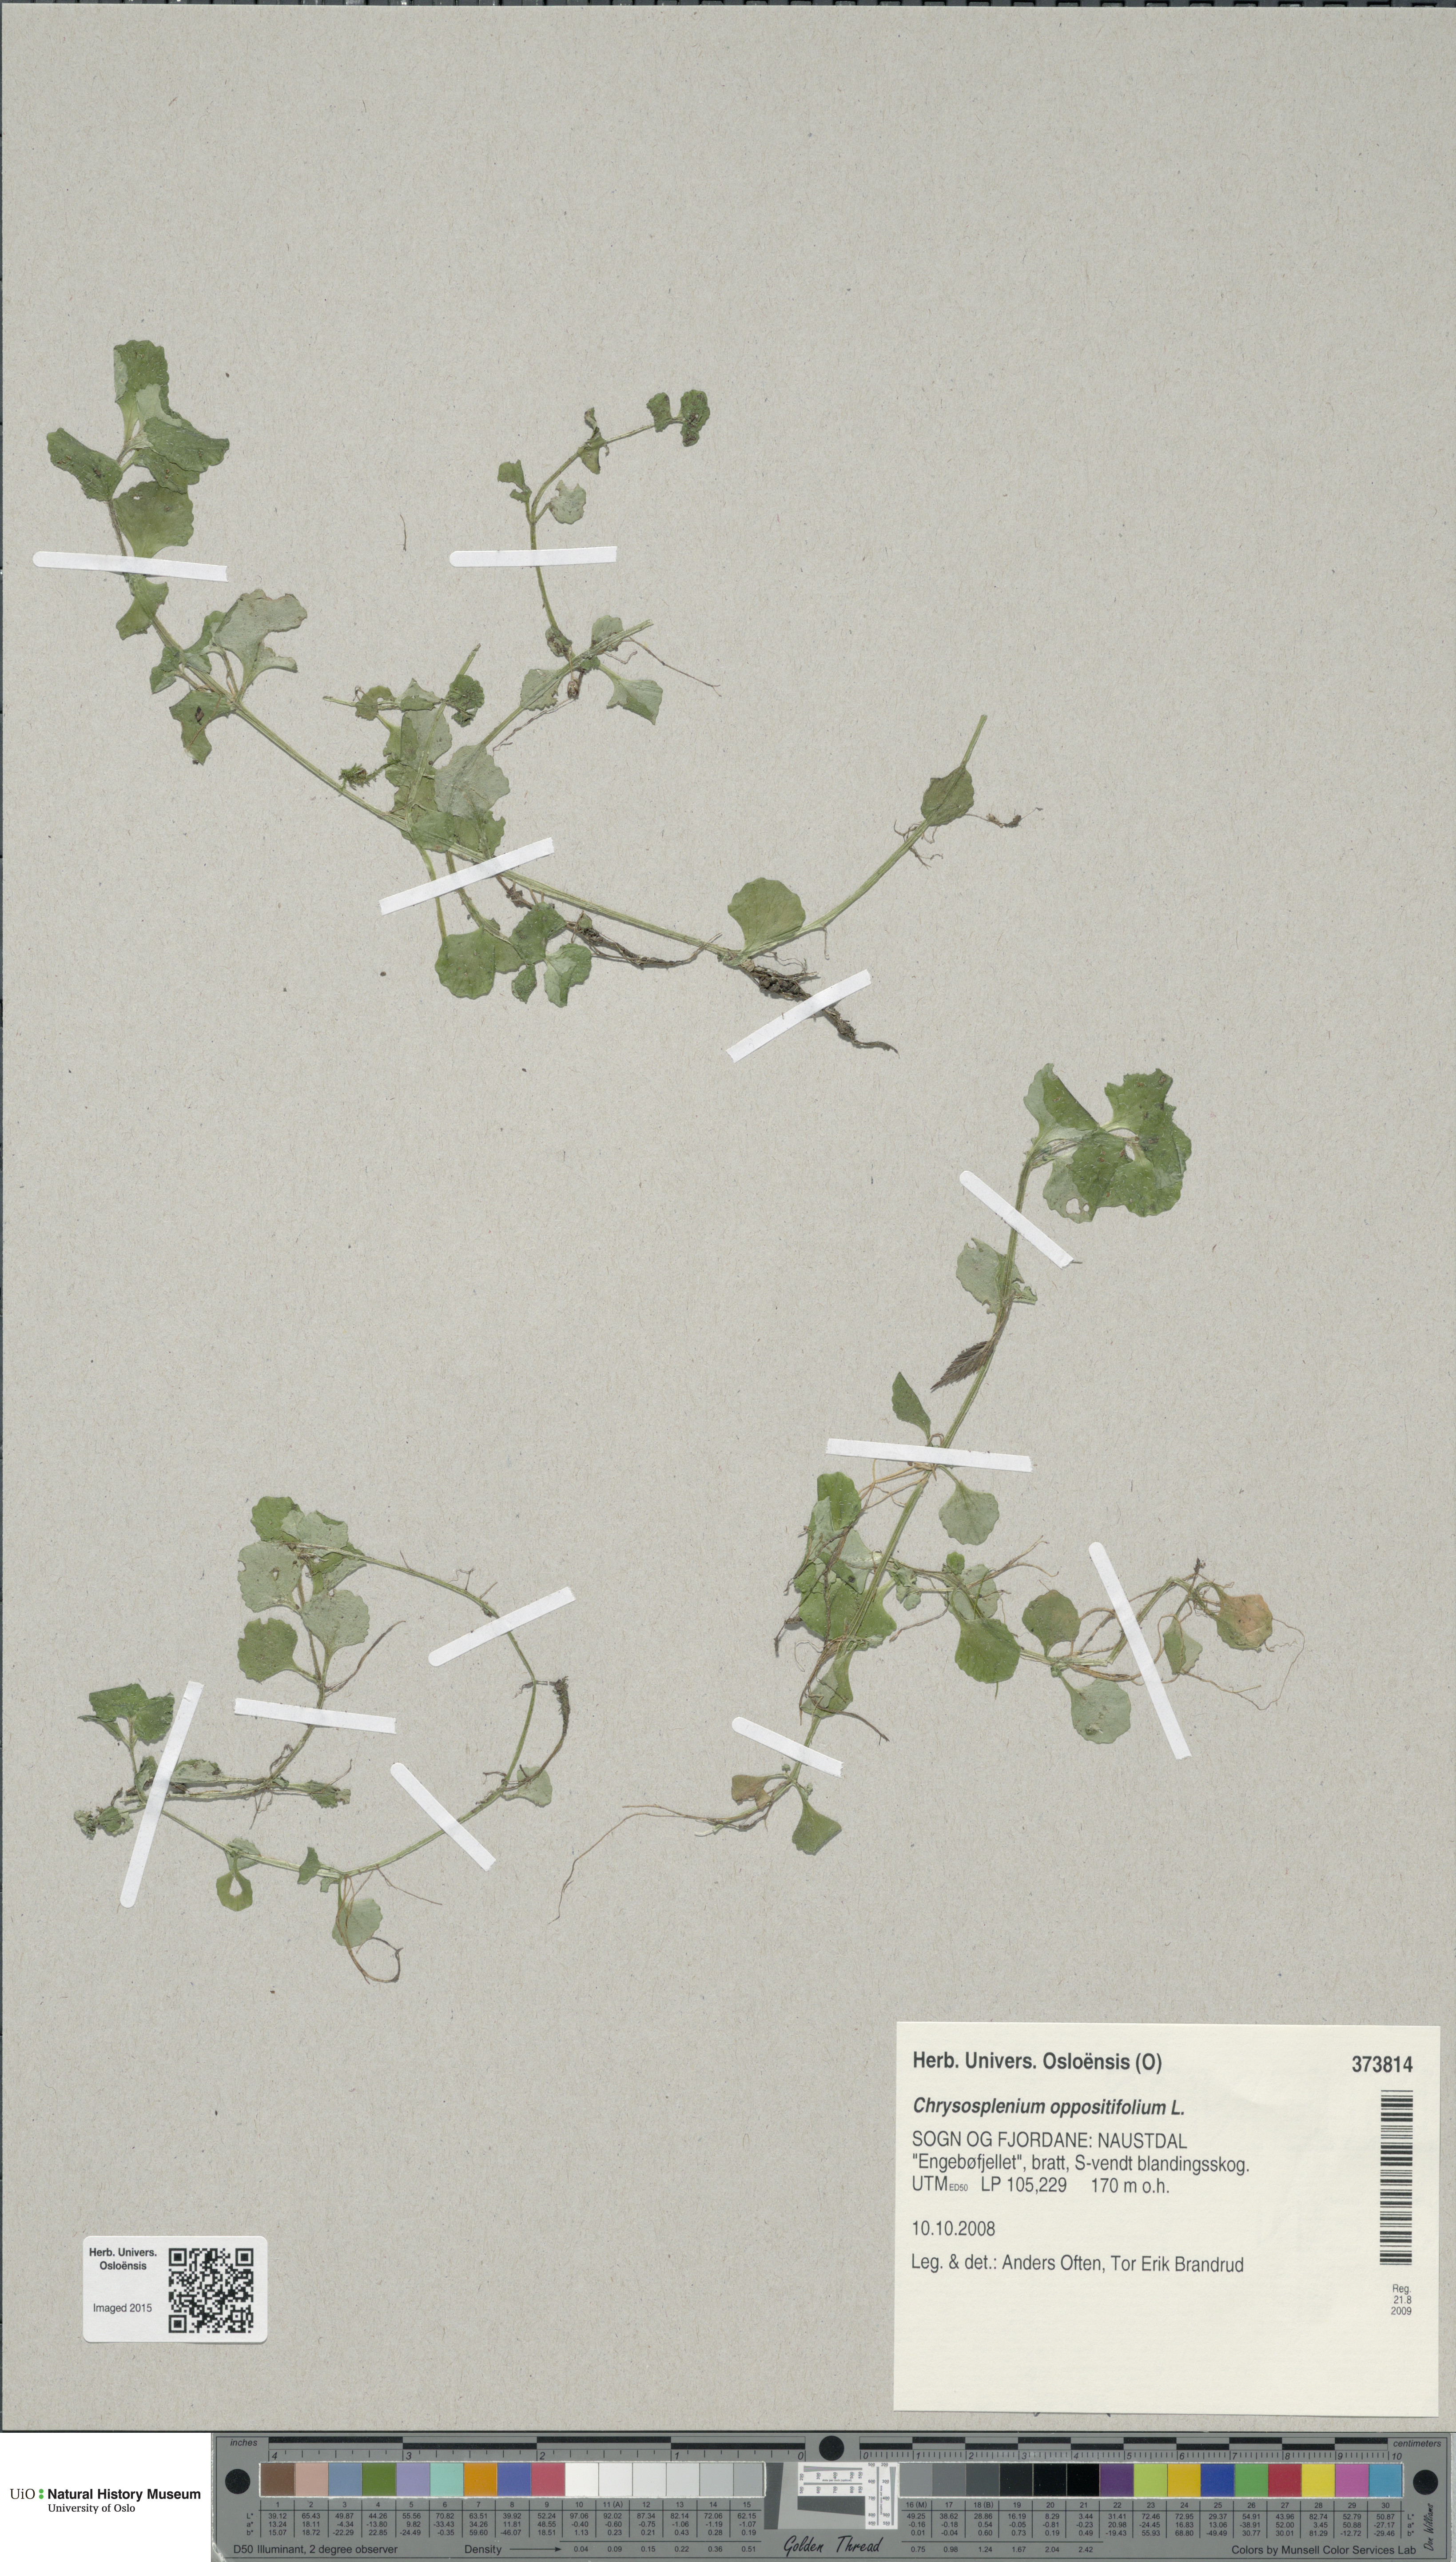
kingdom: Plantae
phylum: Tracheophyta
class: Magnoliopsida
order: Saxifragales
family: Saxifragaceae
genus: Chrysosplenium
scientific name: Chrysosplenium oppositifolium
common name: Opposite-leaved golden-saxifrage
